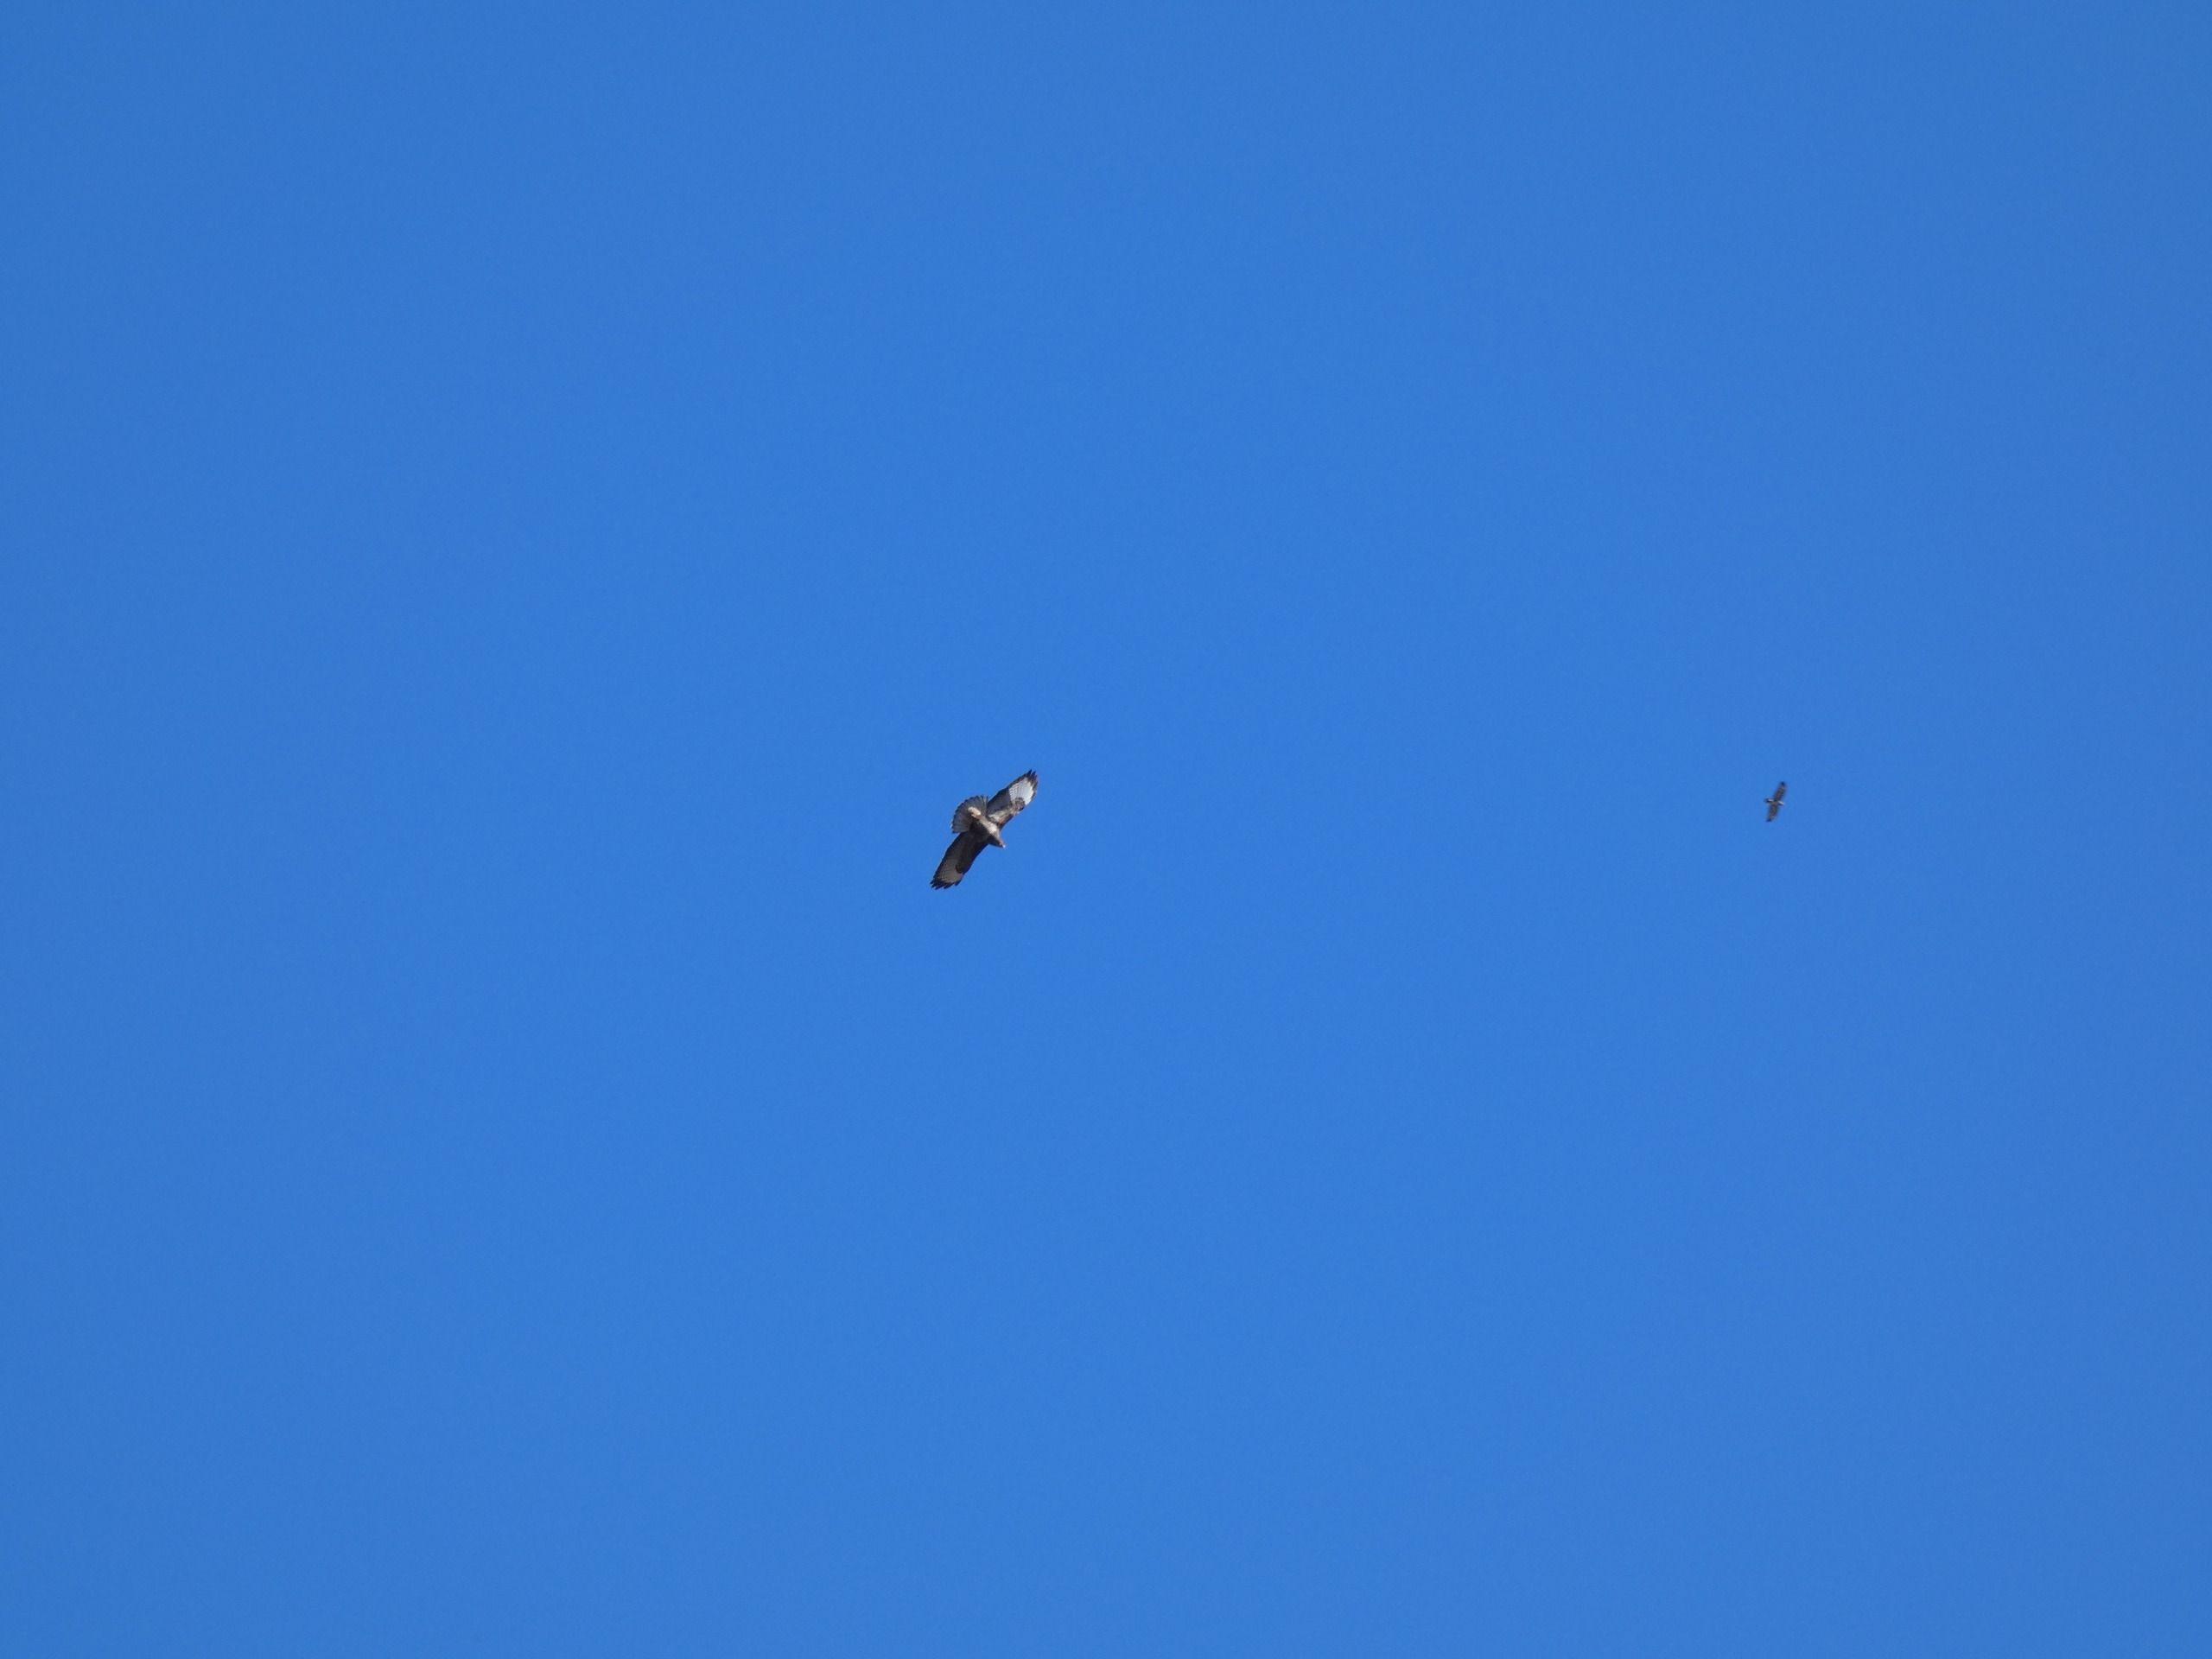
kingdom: Animalia
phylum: Chordata
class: Aves
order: Accipitriformes
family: Accipitridae
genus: Buteo
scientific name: Buteo buteo
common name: Musvåge
